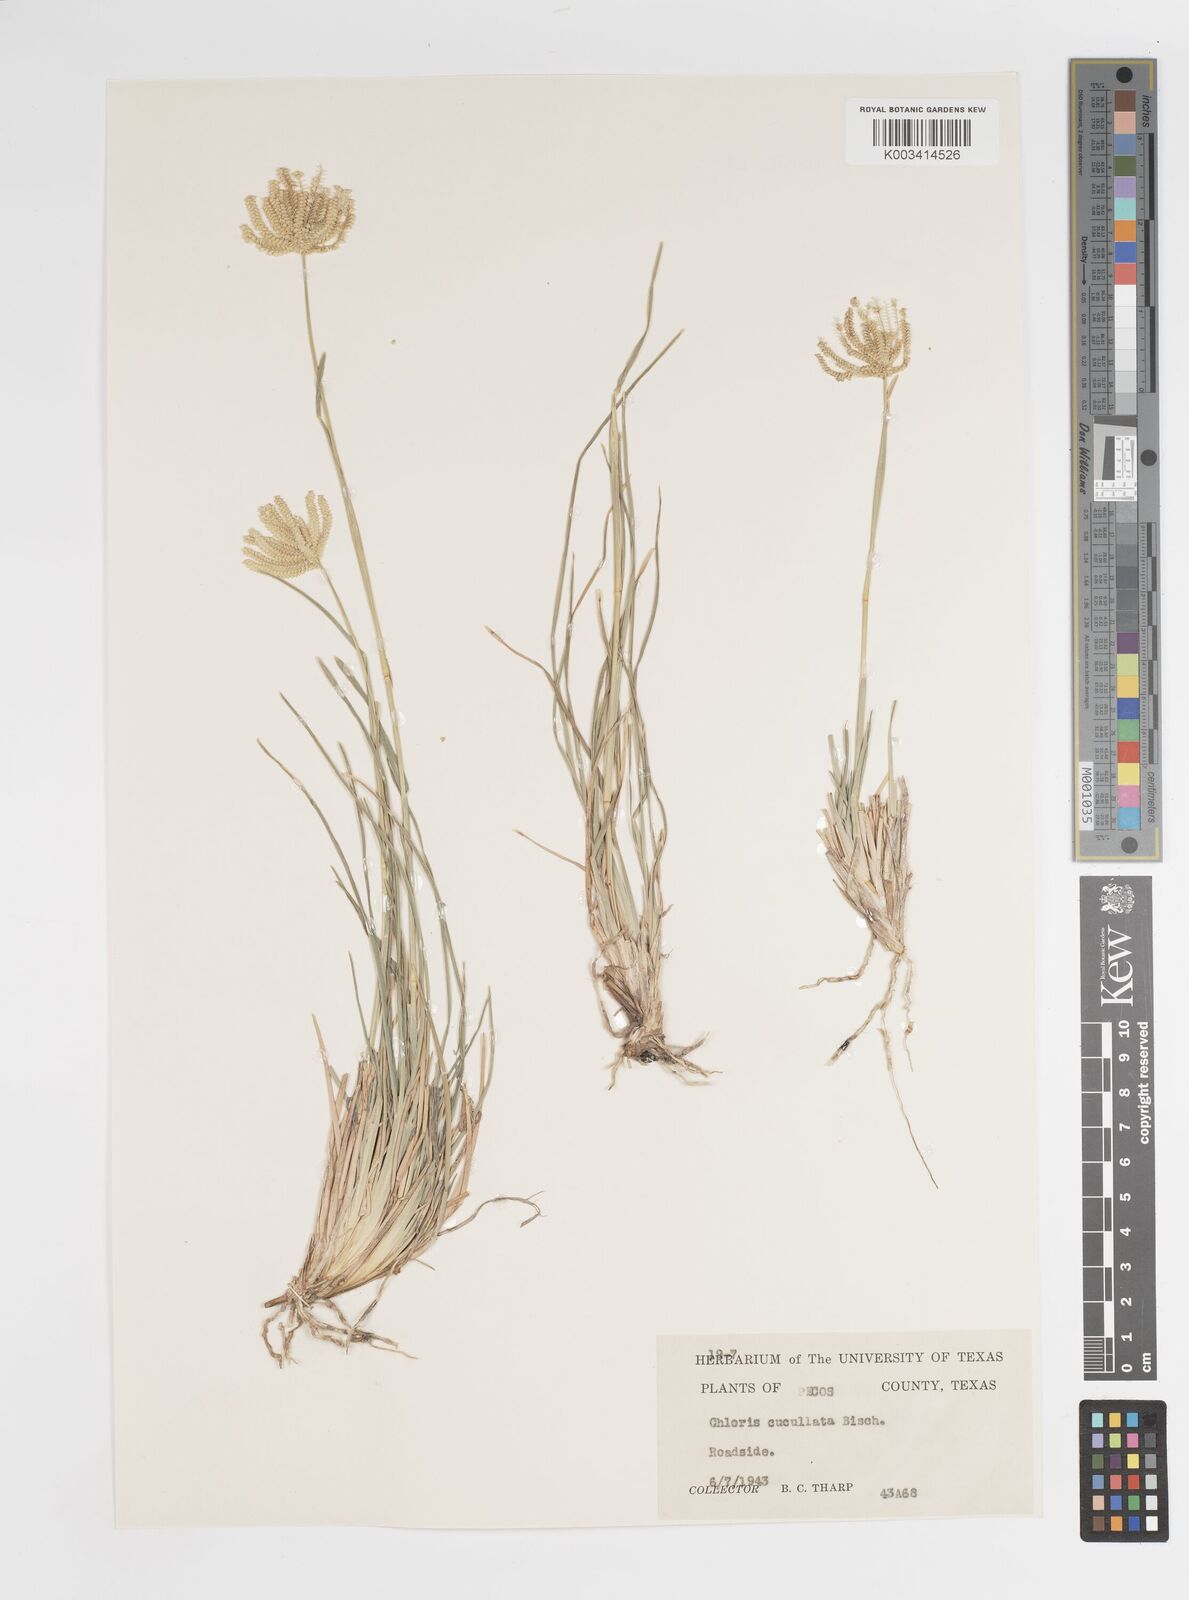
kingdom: Plantae
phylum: Tracheophyta
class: Liliopsida
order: Poales
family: Poaceae
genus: Chloris
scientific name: Chloris cucullata
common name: Hooded windmill grass
